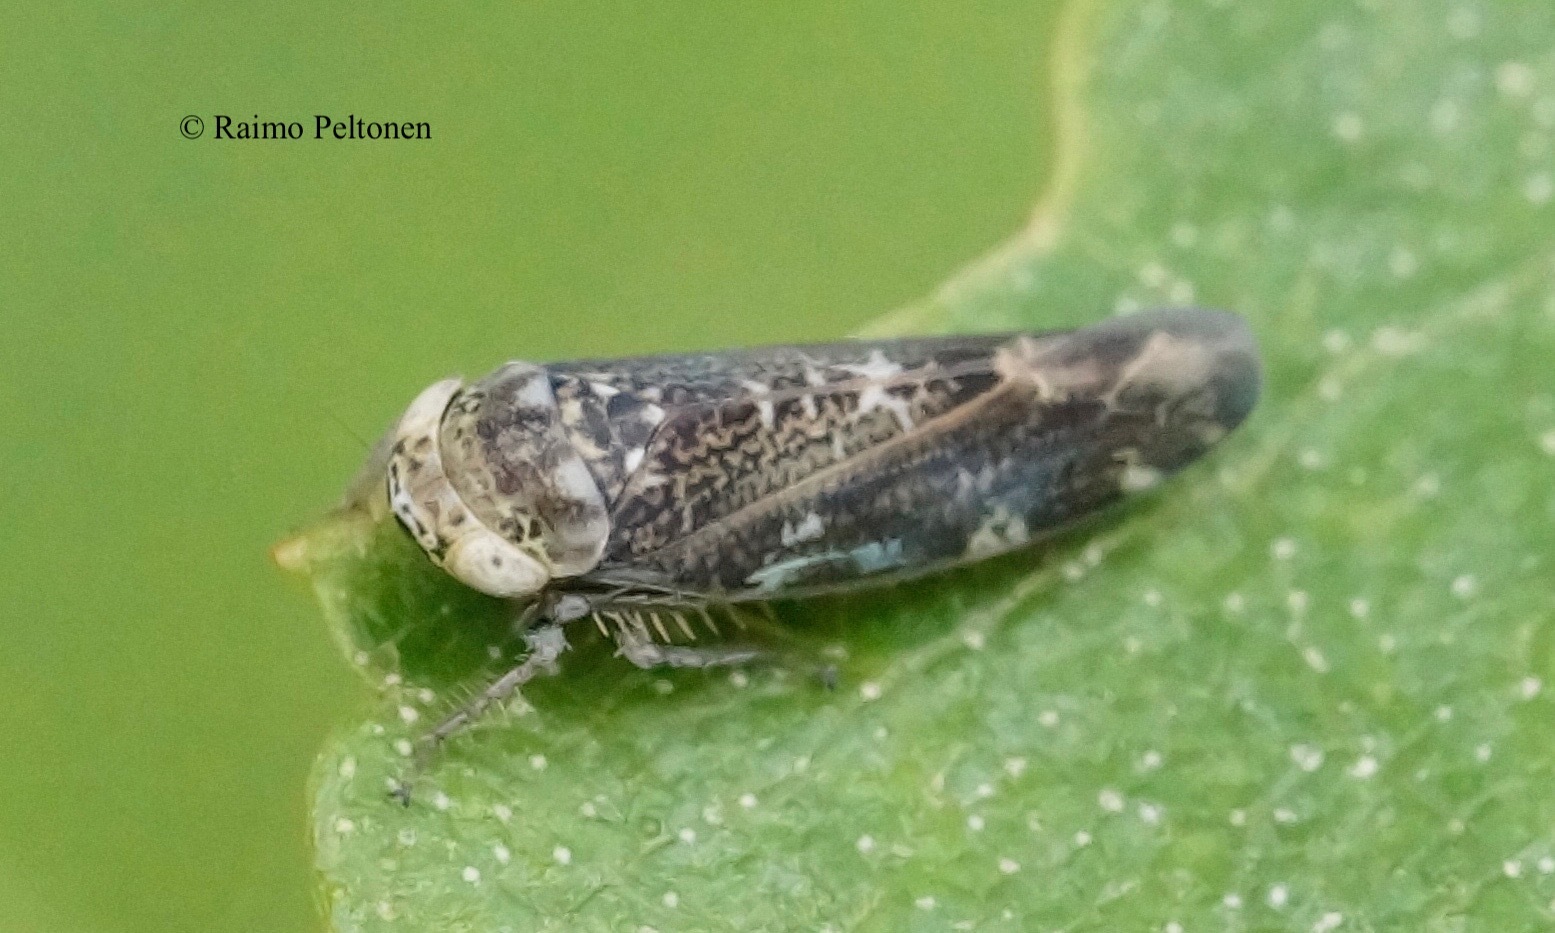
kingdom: Animalia
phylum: Arthropoda
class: Insecta
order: Hemiptera
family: Cicadellidae
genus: Allygus
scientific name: Allygus mixtus
